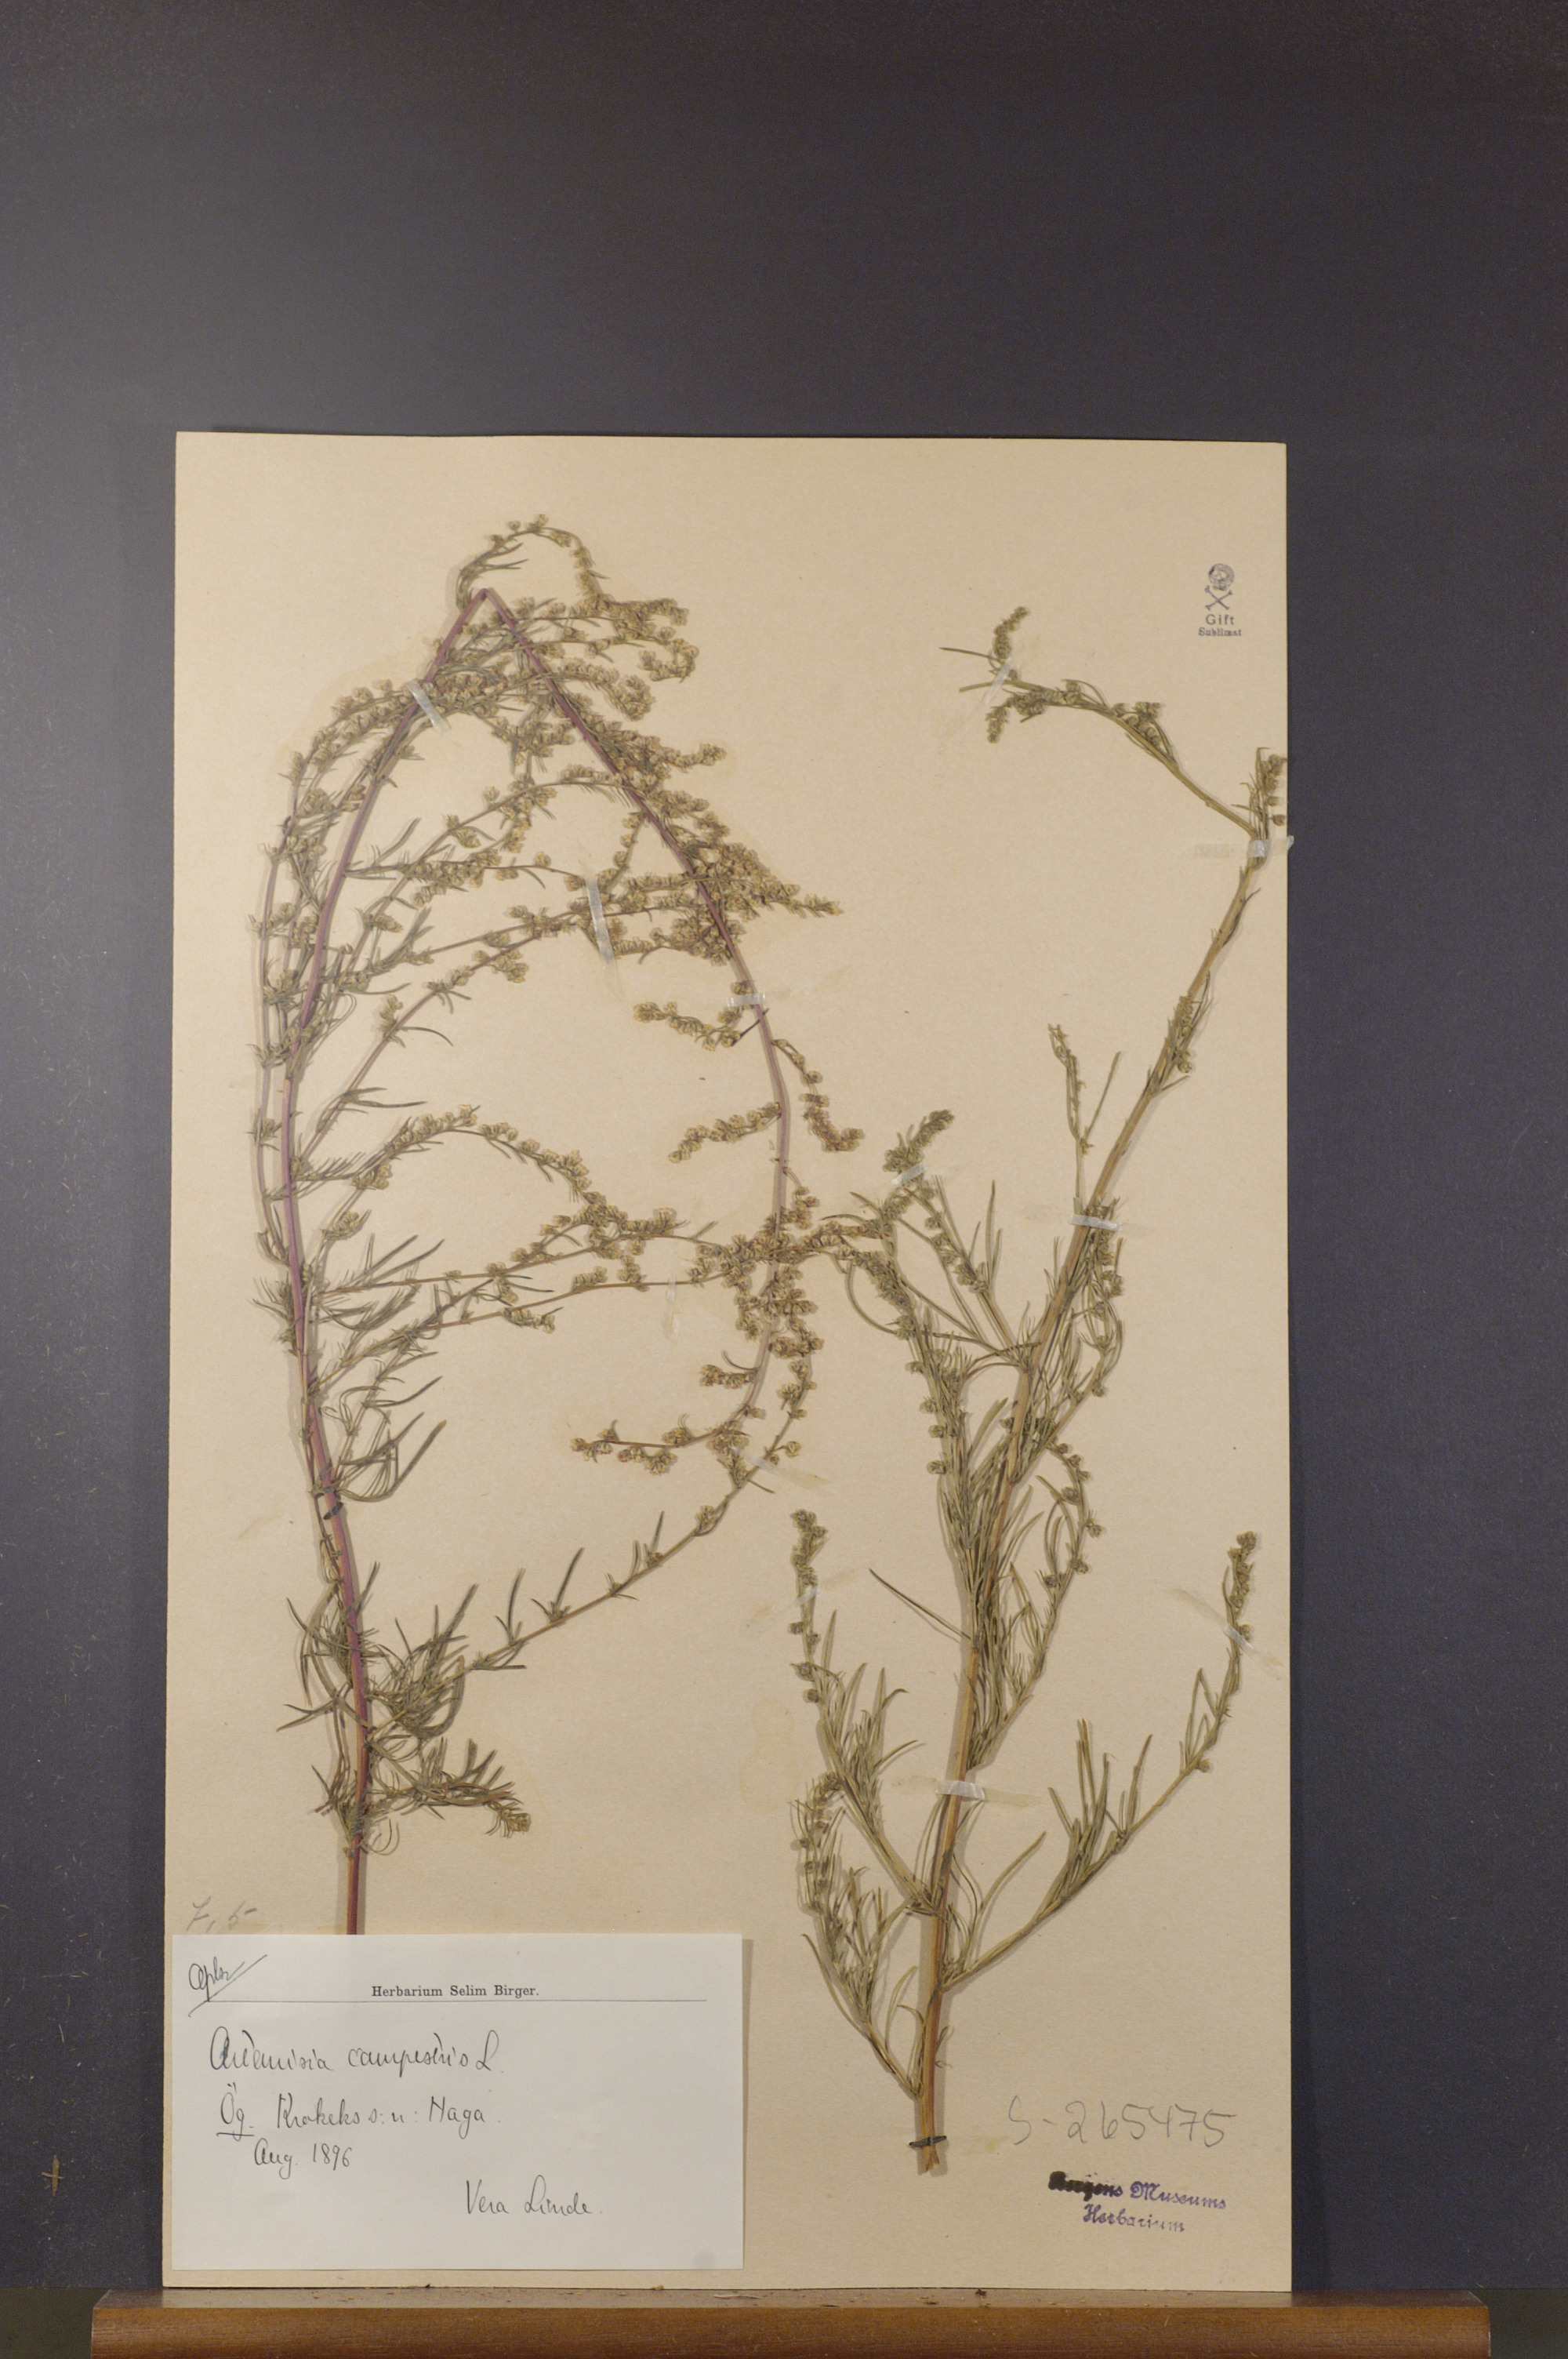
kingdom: Plantae
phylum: Tracheophyta
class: Magnoliopsida
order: Asterales
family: Asteraceae
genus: Artemisia
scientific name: Artemisia campestris
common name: Field wormwood
